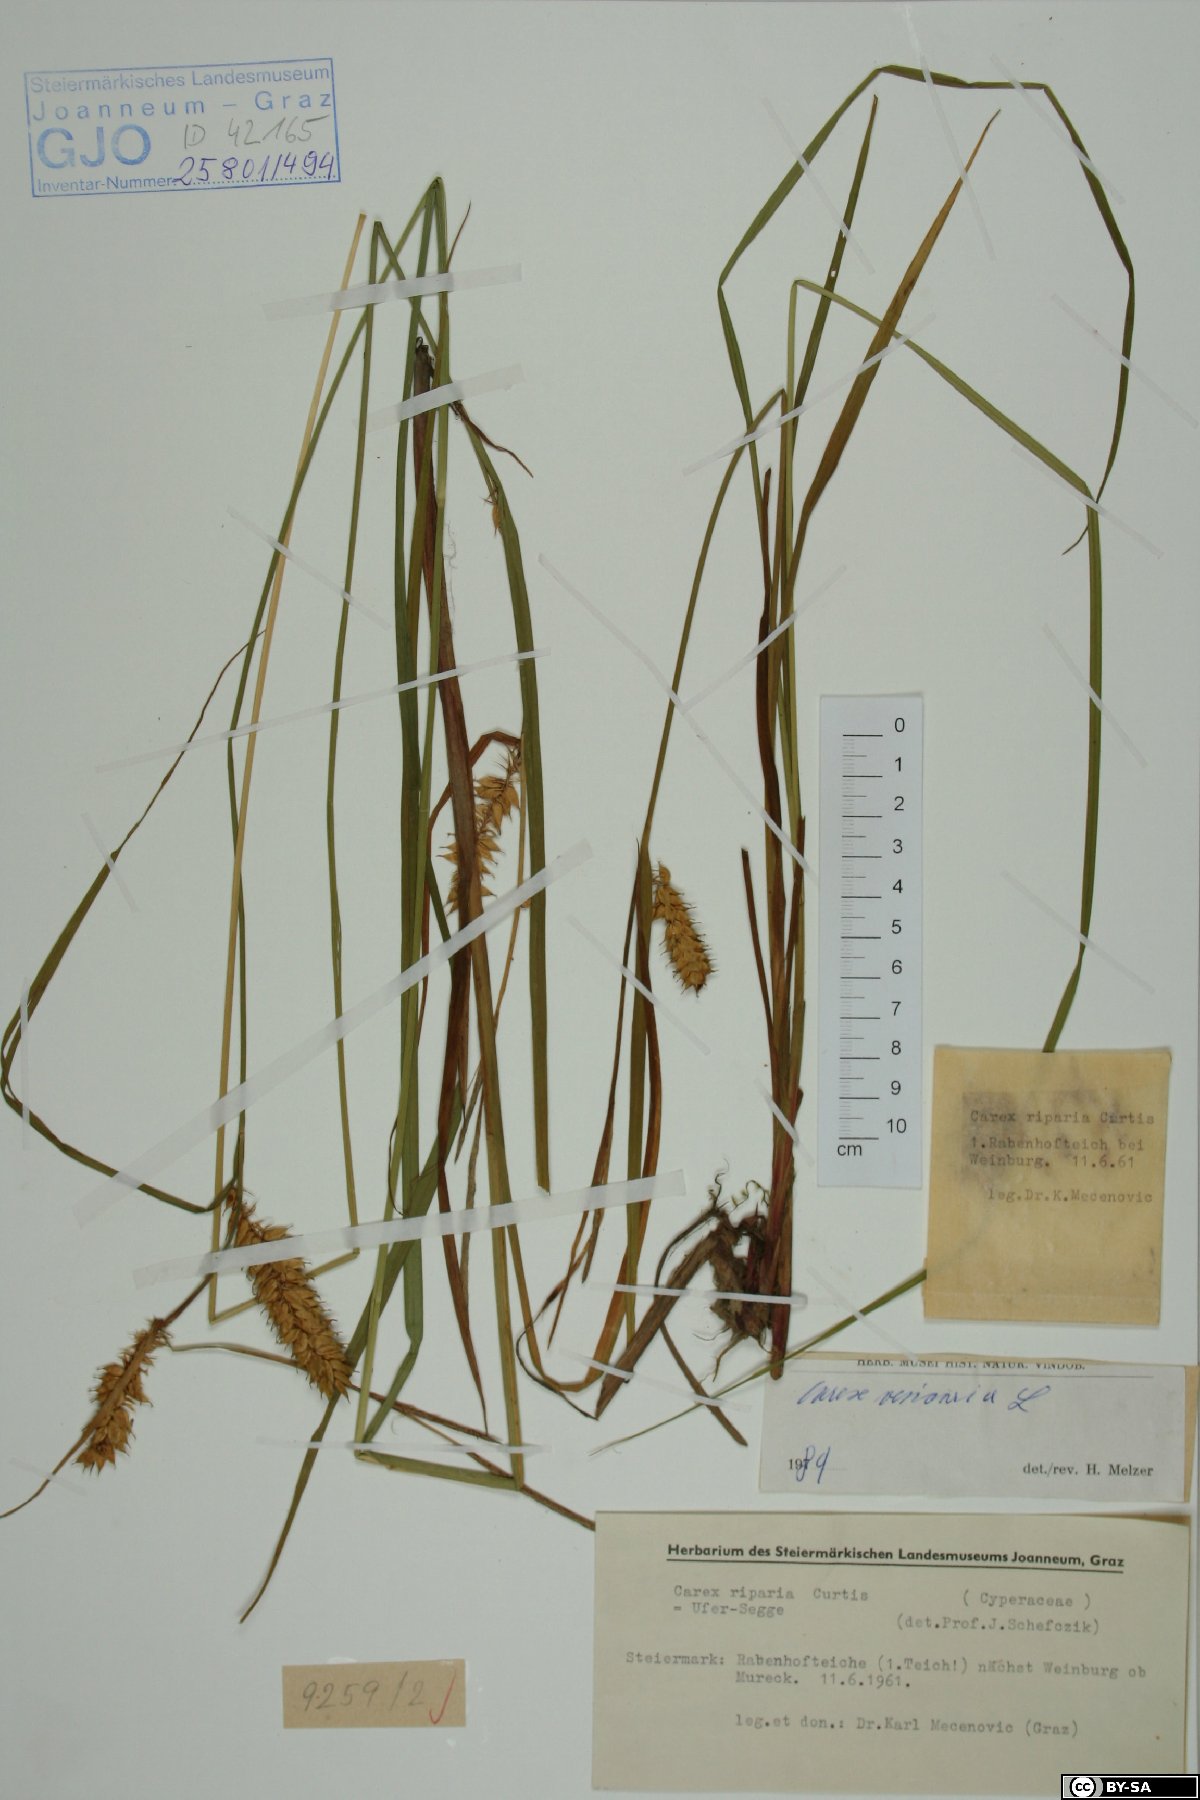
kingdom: Plantae
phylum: Tracheophyta
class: Liliopsida
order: Poales
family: Cyperaceae
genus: Carex
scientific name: Carex vesicaria
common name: Bladder-sedge
